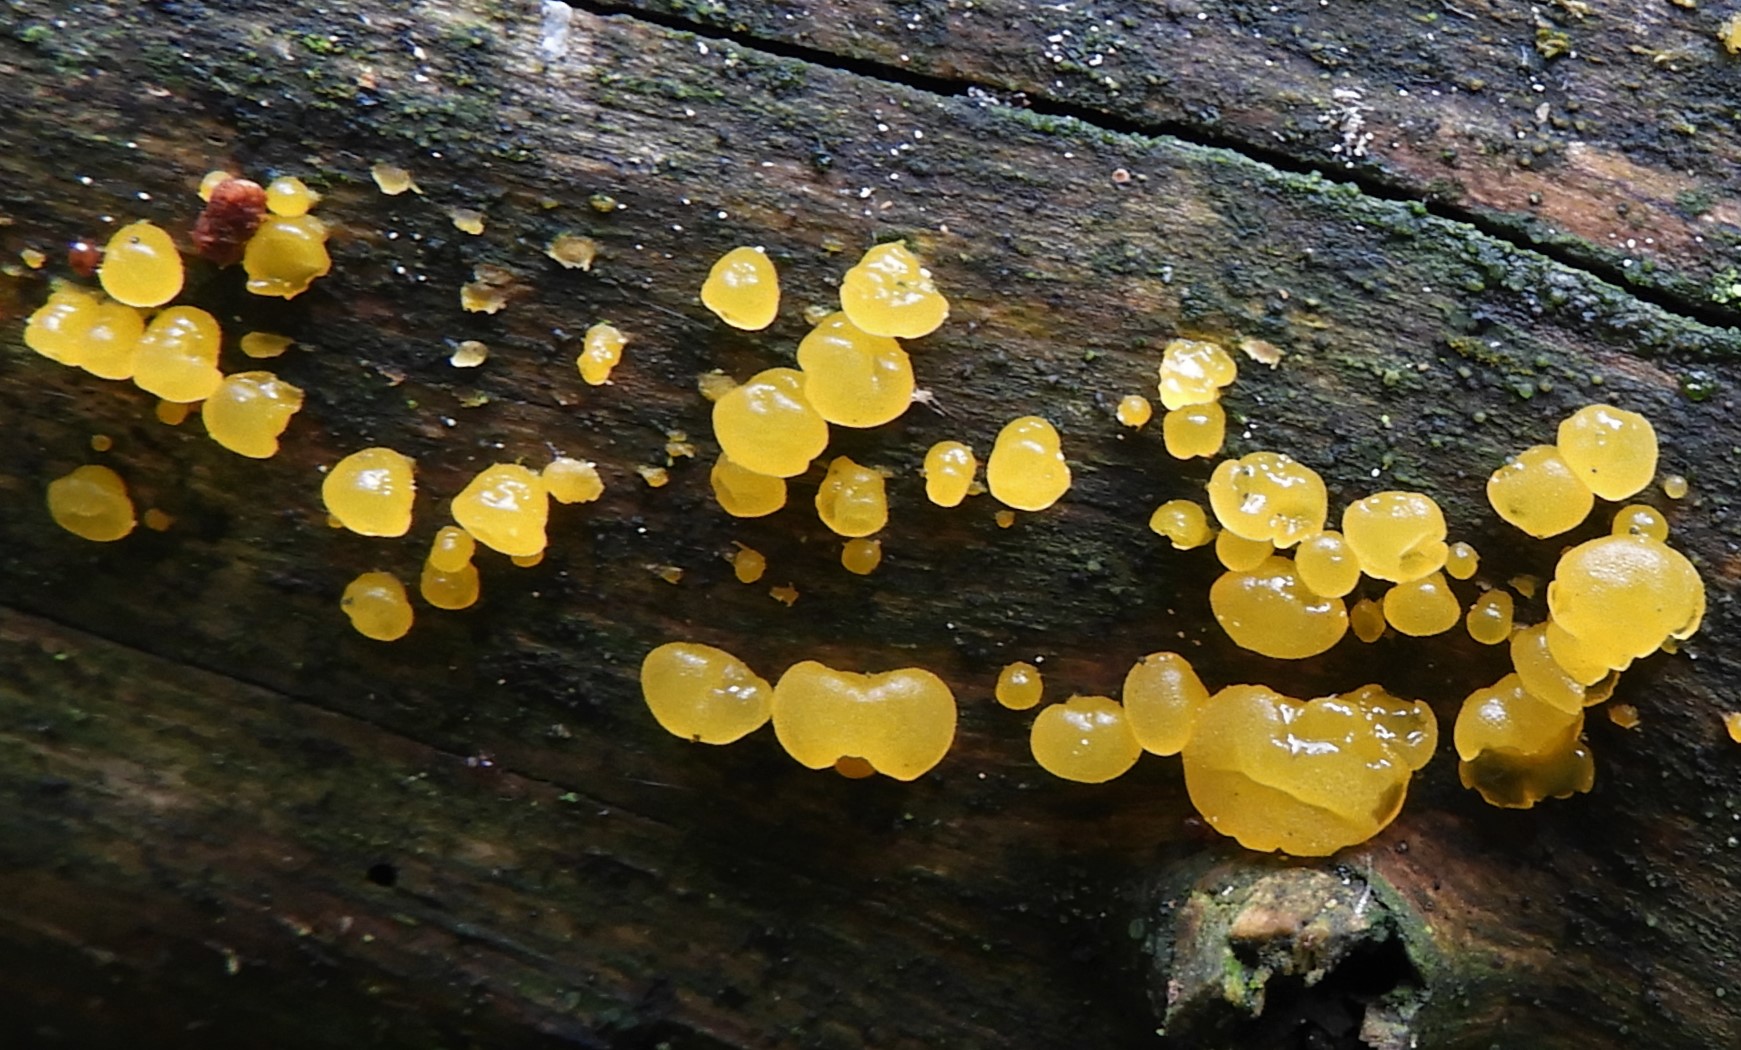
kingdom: Fungi
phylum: Basidiomycota
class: Dacrymycetes
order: Dacrymycetales
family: Dacrymycetaceae
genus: Dacrymyces
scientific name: Dacrymyces stillatus
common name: almindelig tåresvamp
